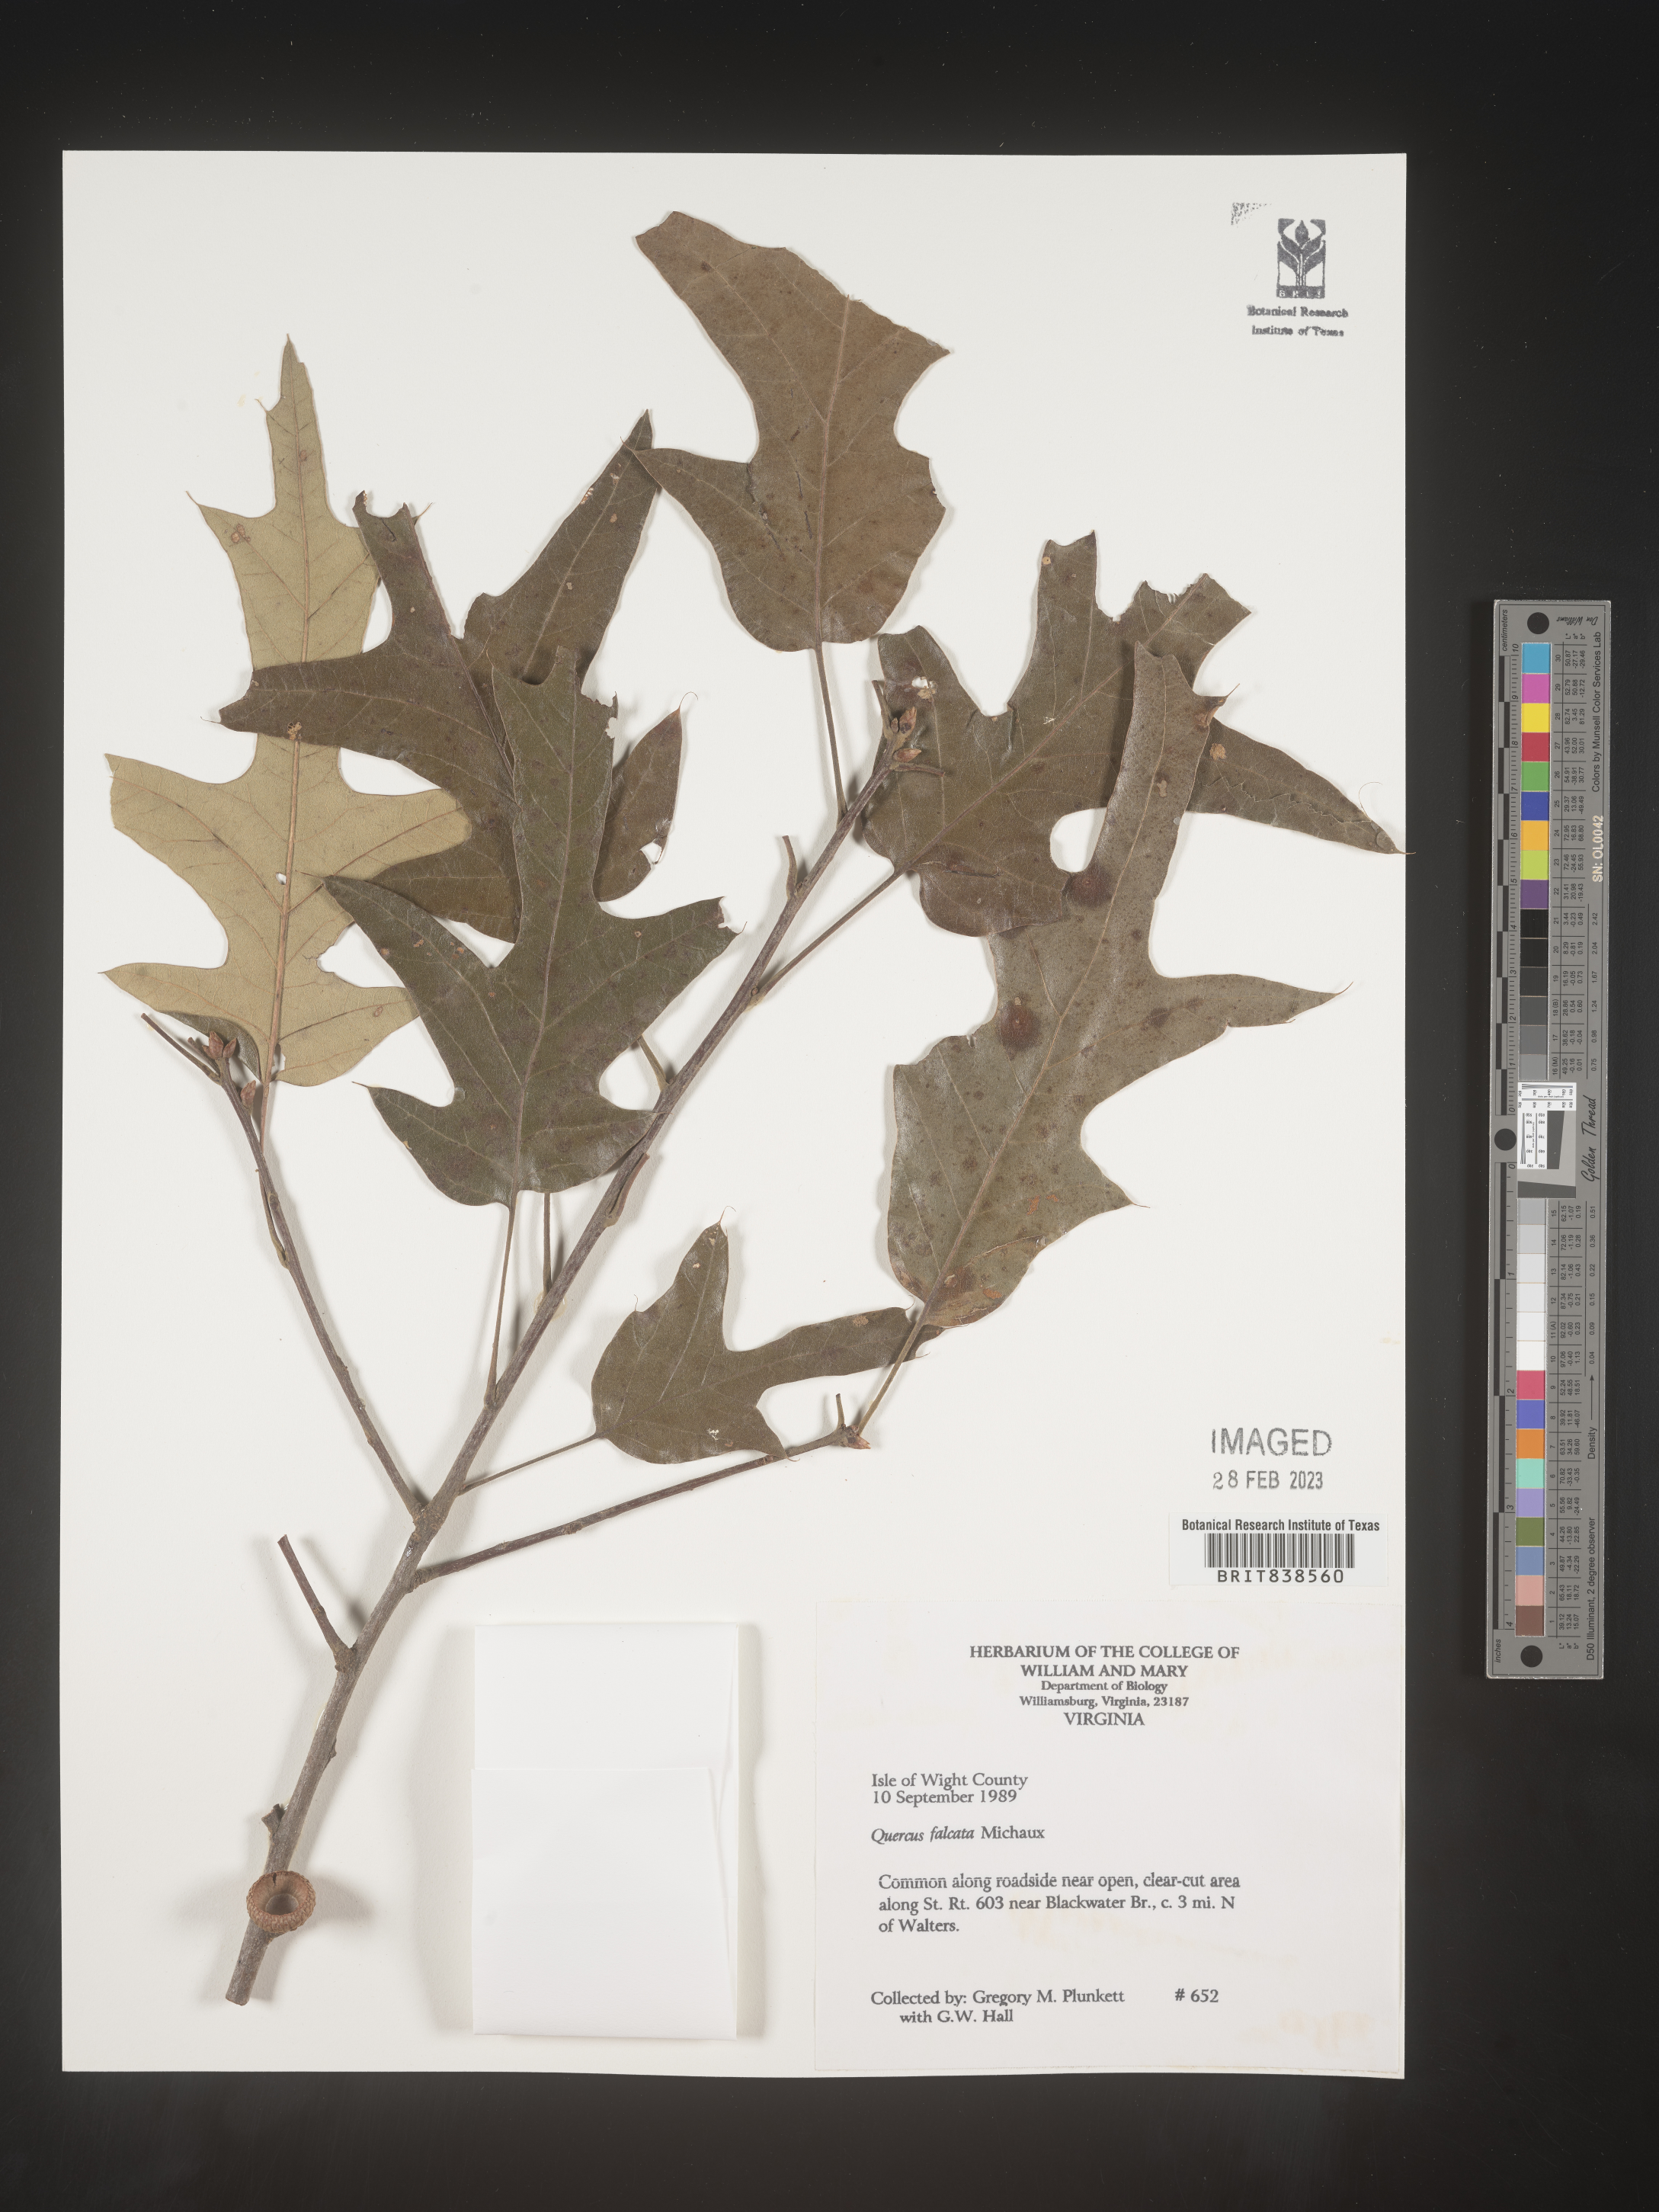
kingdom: Plantae
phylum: Tracheophyta
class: Magnoliopsida
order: Fagales
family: Fagaceae
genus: Quercus
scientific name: Quercus falcata
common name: Southern red oak
